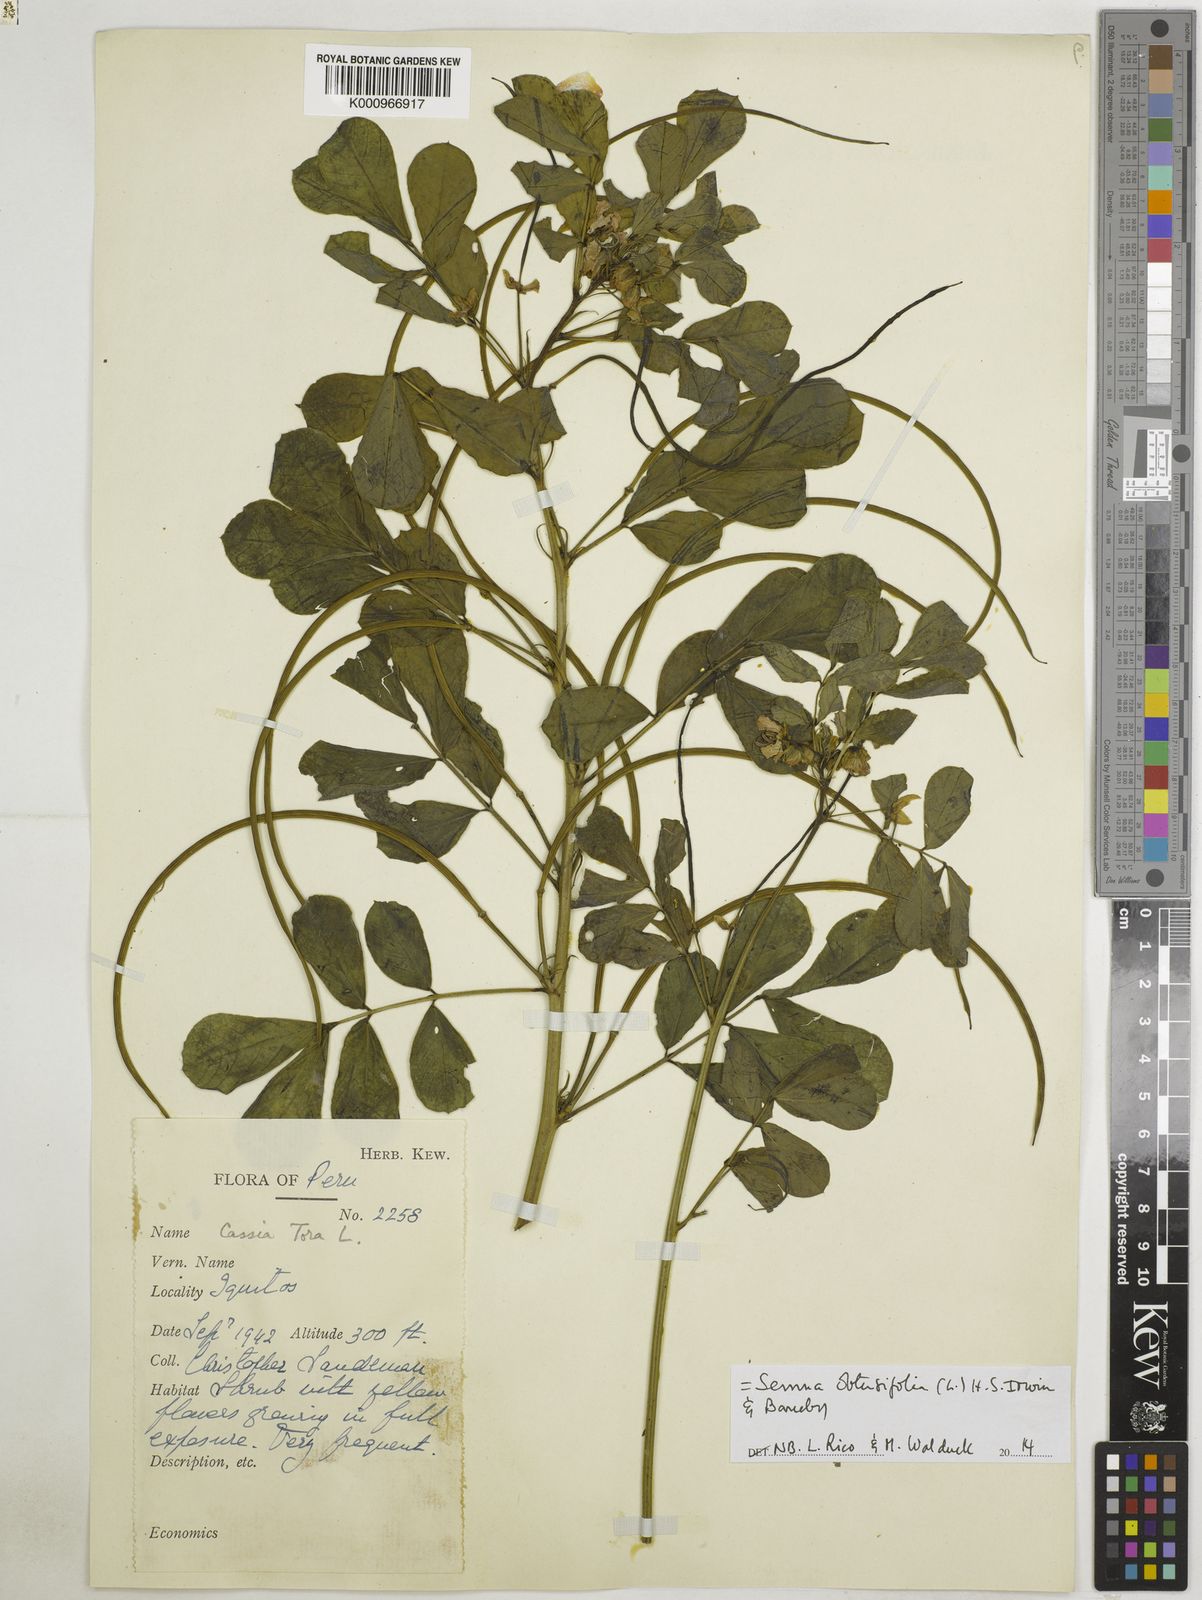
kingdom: Plantae
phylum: Tracheophyta
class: Magnoliopsida
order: Fabales
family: Fabaceae
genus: Senna
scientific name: Senna obtusifolia
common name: Java-bean
